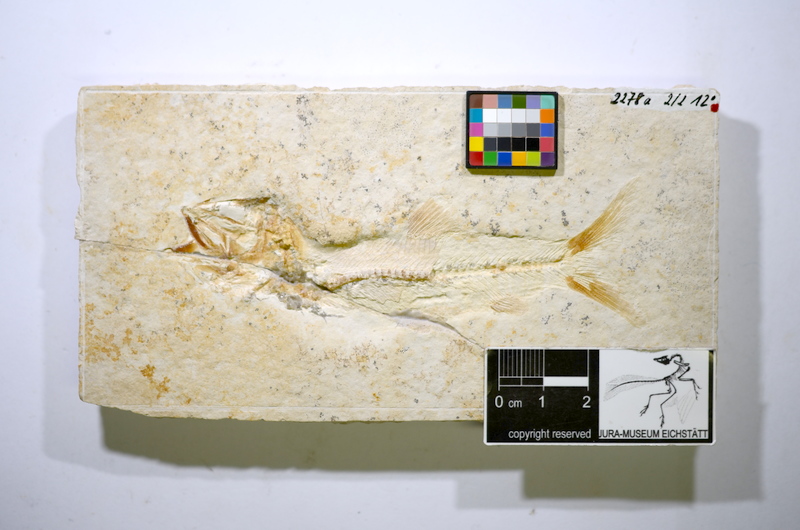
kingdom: Animalia
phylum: Chordata
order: Elopiformes
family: Anaethalionidae
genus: Anaethalion
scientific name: Anaethalion angustus
